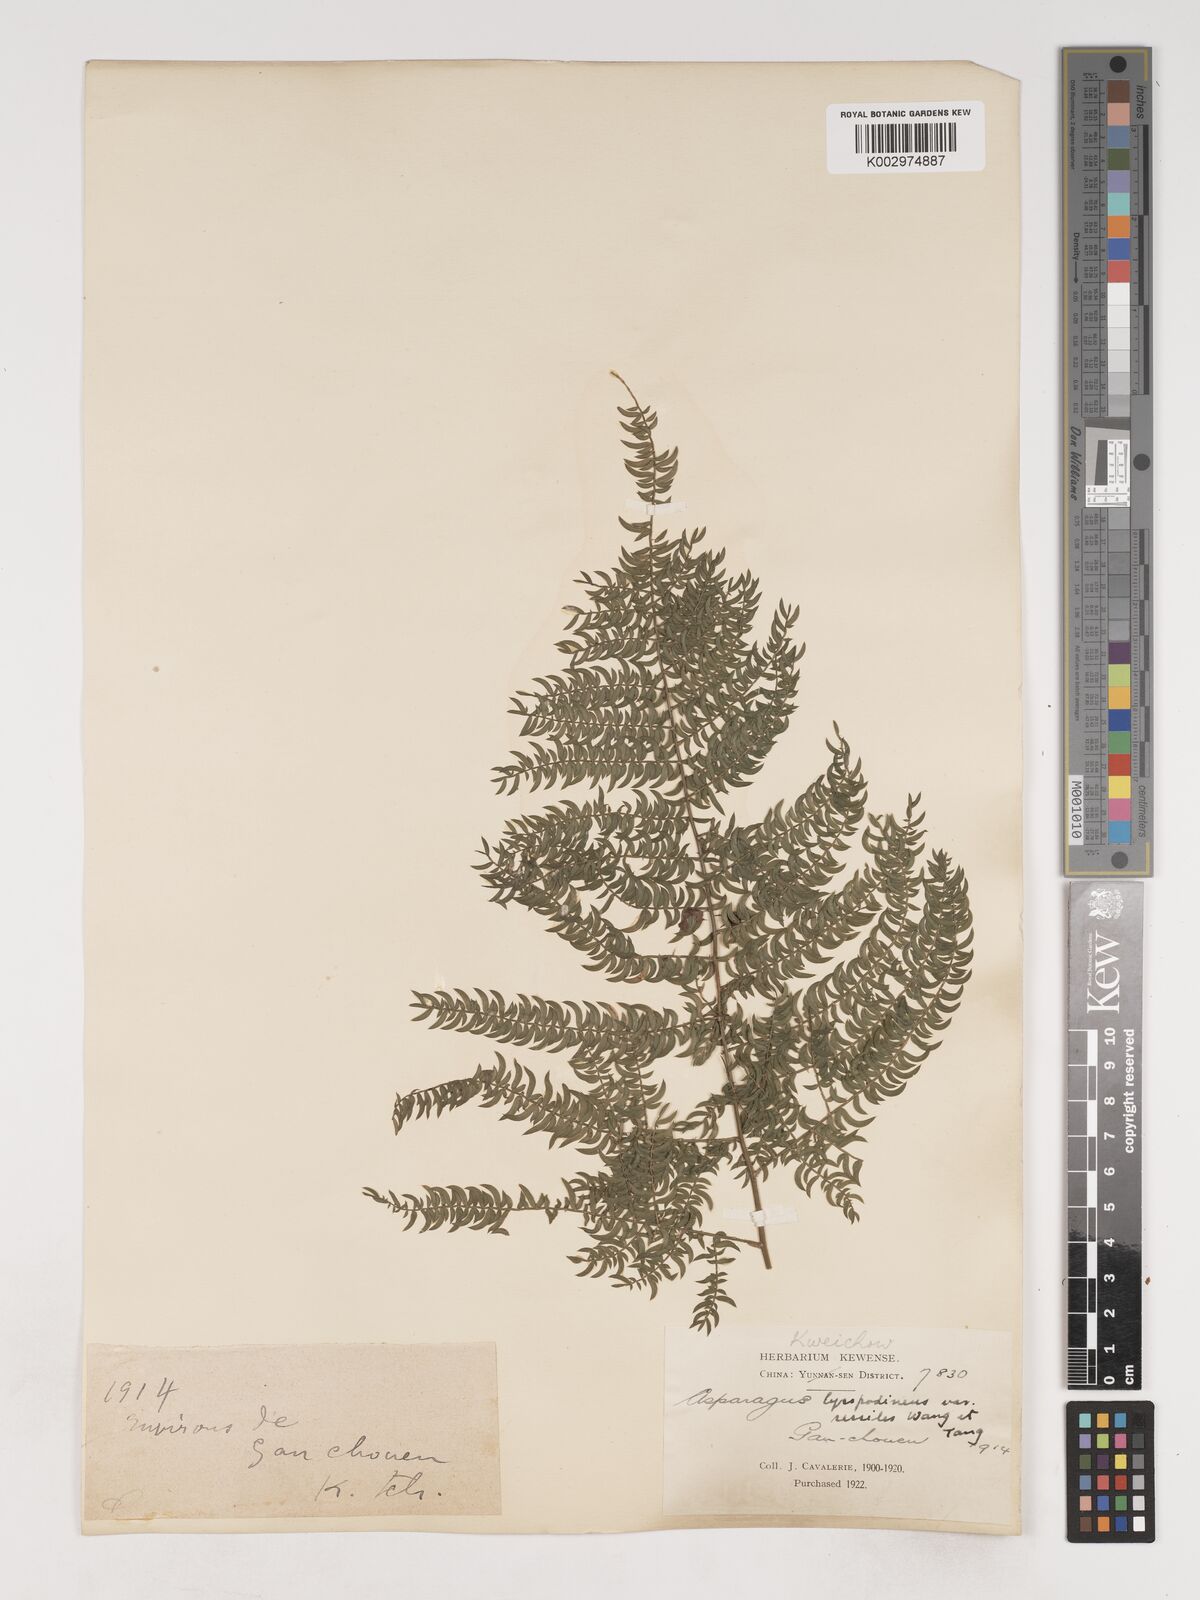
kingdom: Plantae
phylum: Tracheophyta
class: Liliopsida
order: Asparagales
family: Asparagaceae
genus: Asparagus
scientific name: Asparagus lycopodineus
